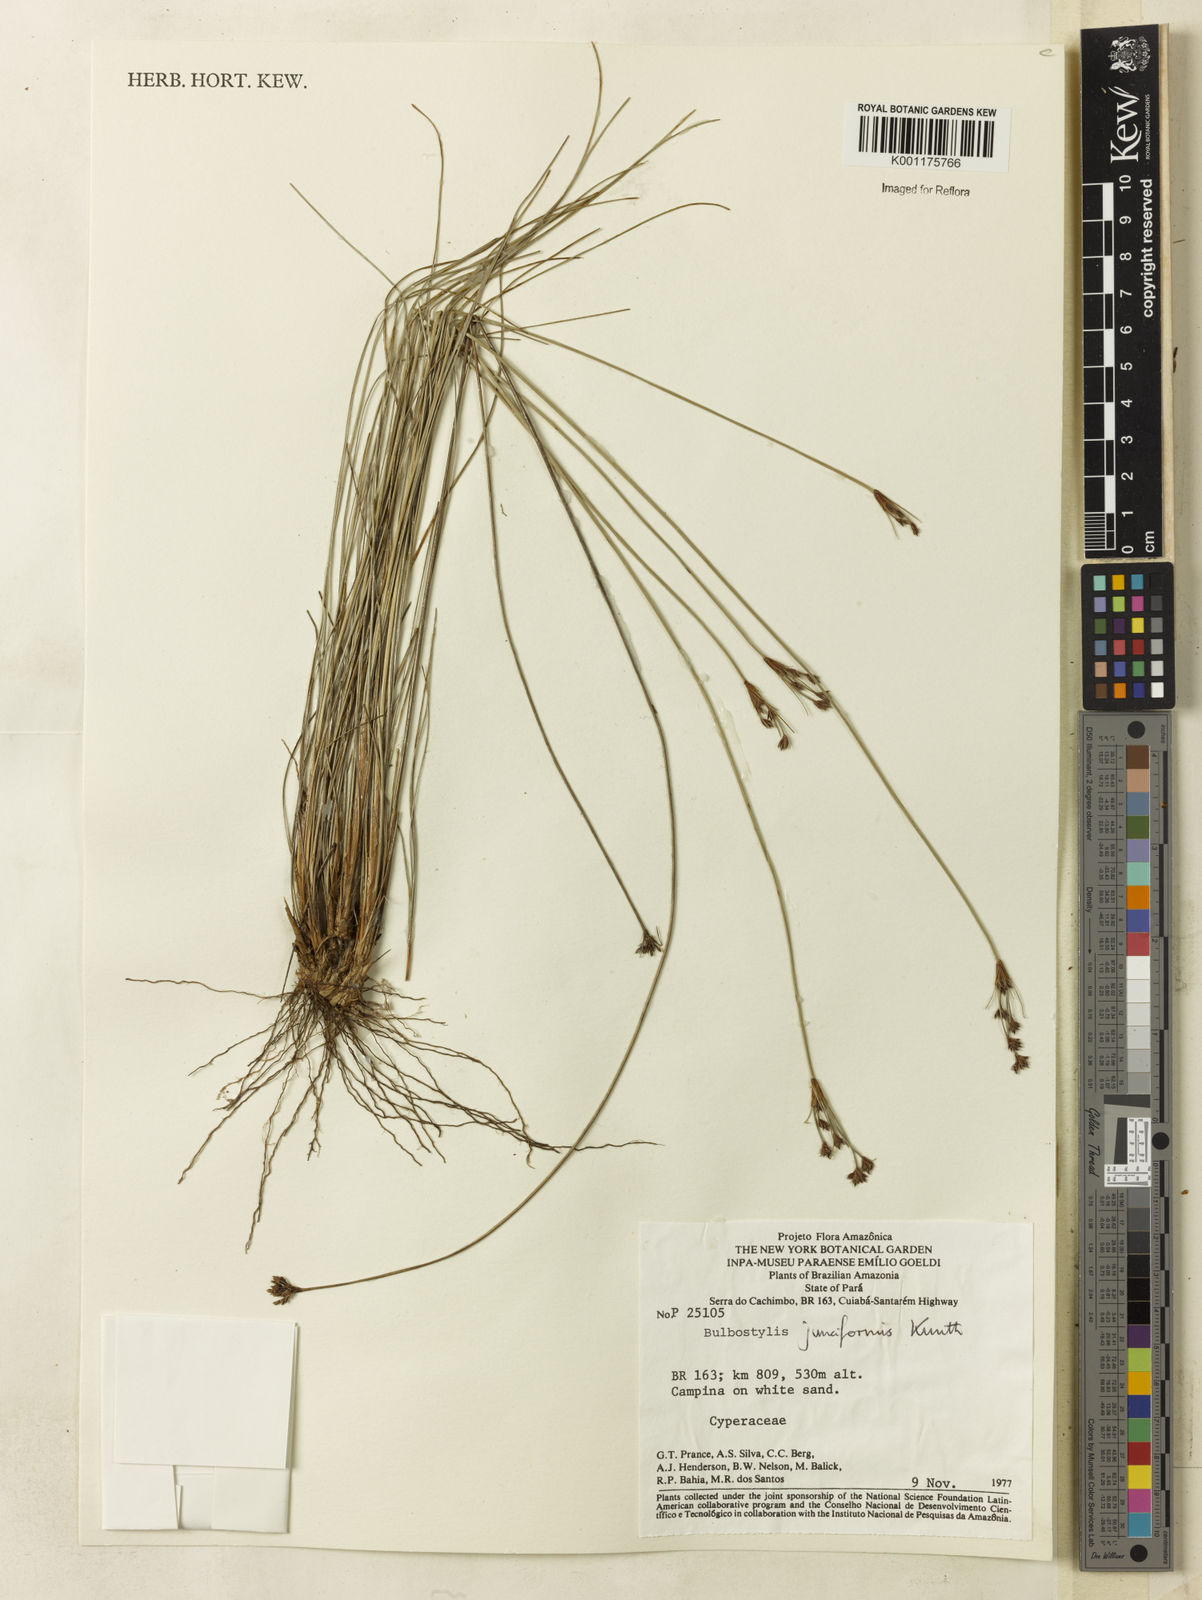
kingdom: Plantae
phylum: Tracheophyta
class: Liliopsida
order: Poales
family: Cyperaceae
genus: Bulbostylis
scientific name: Bulbostylis junciformis
